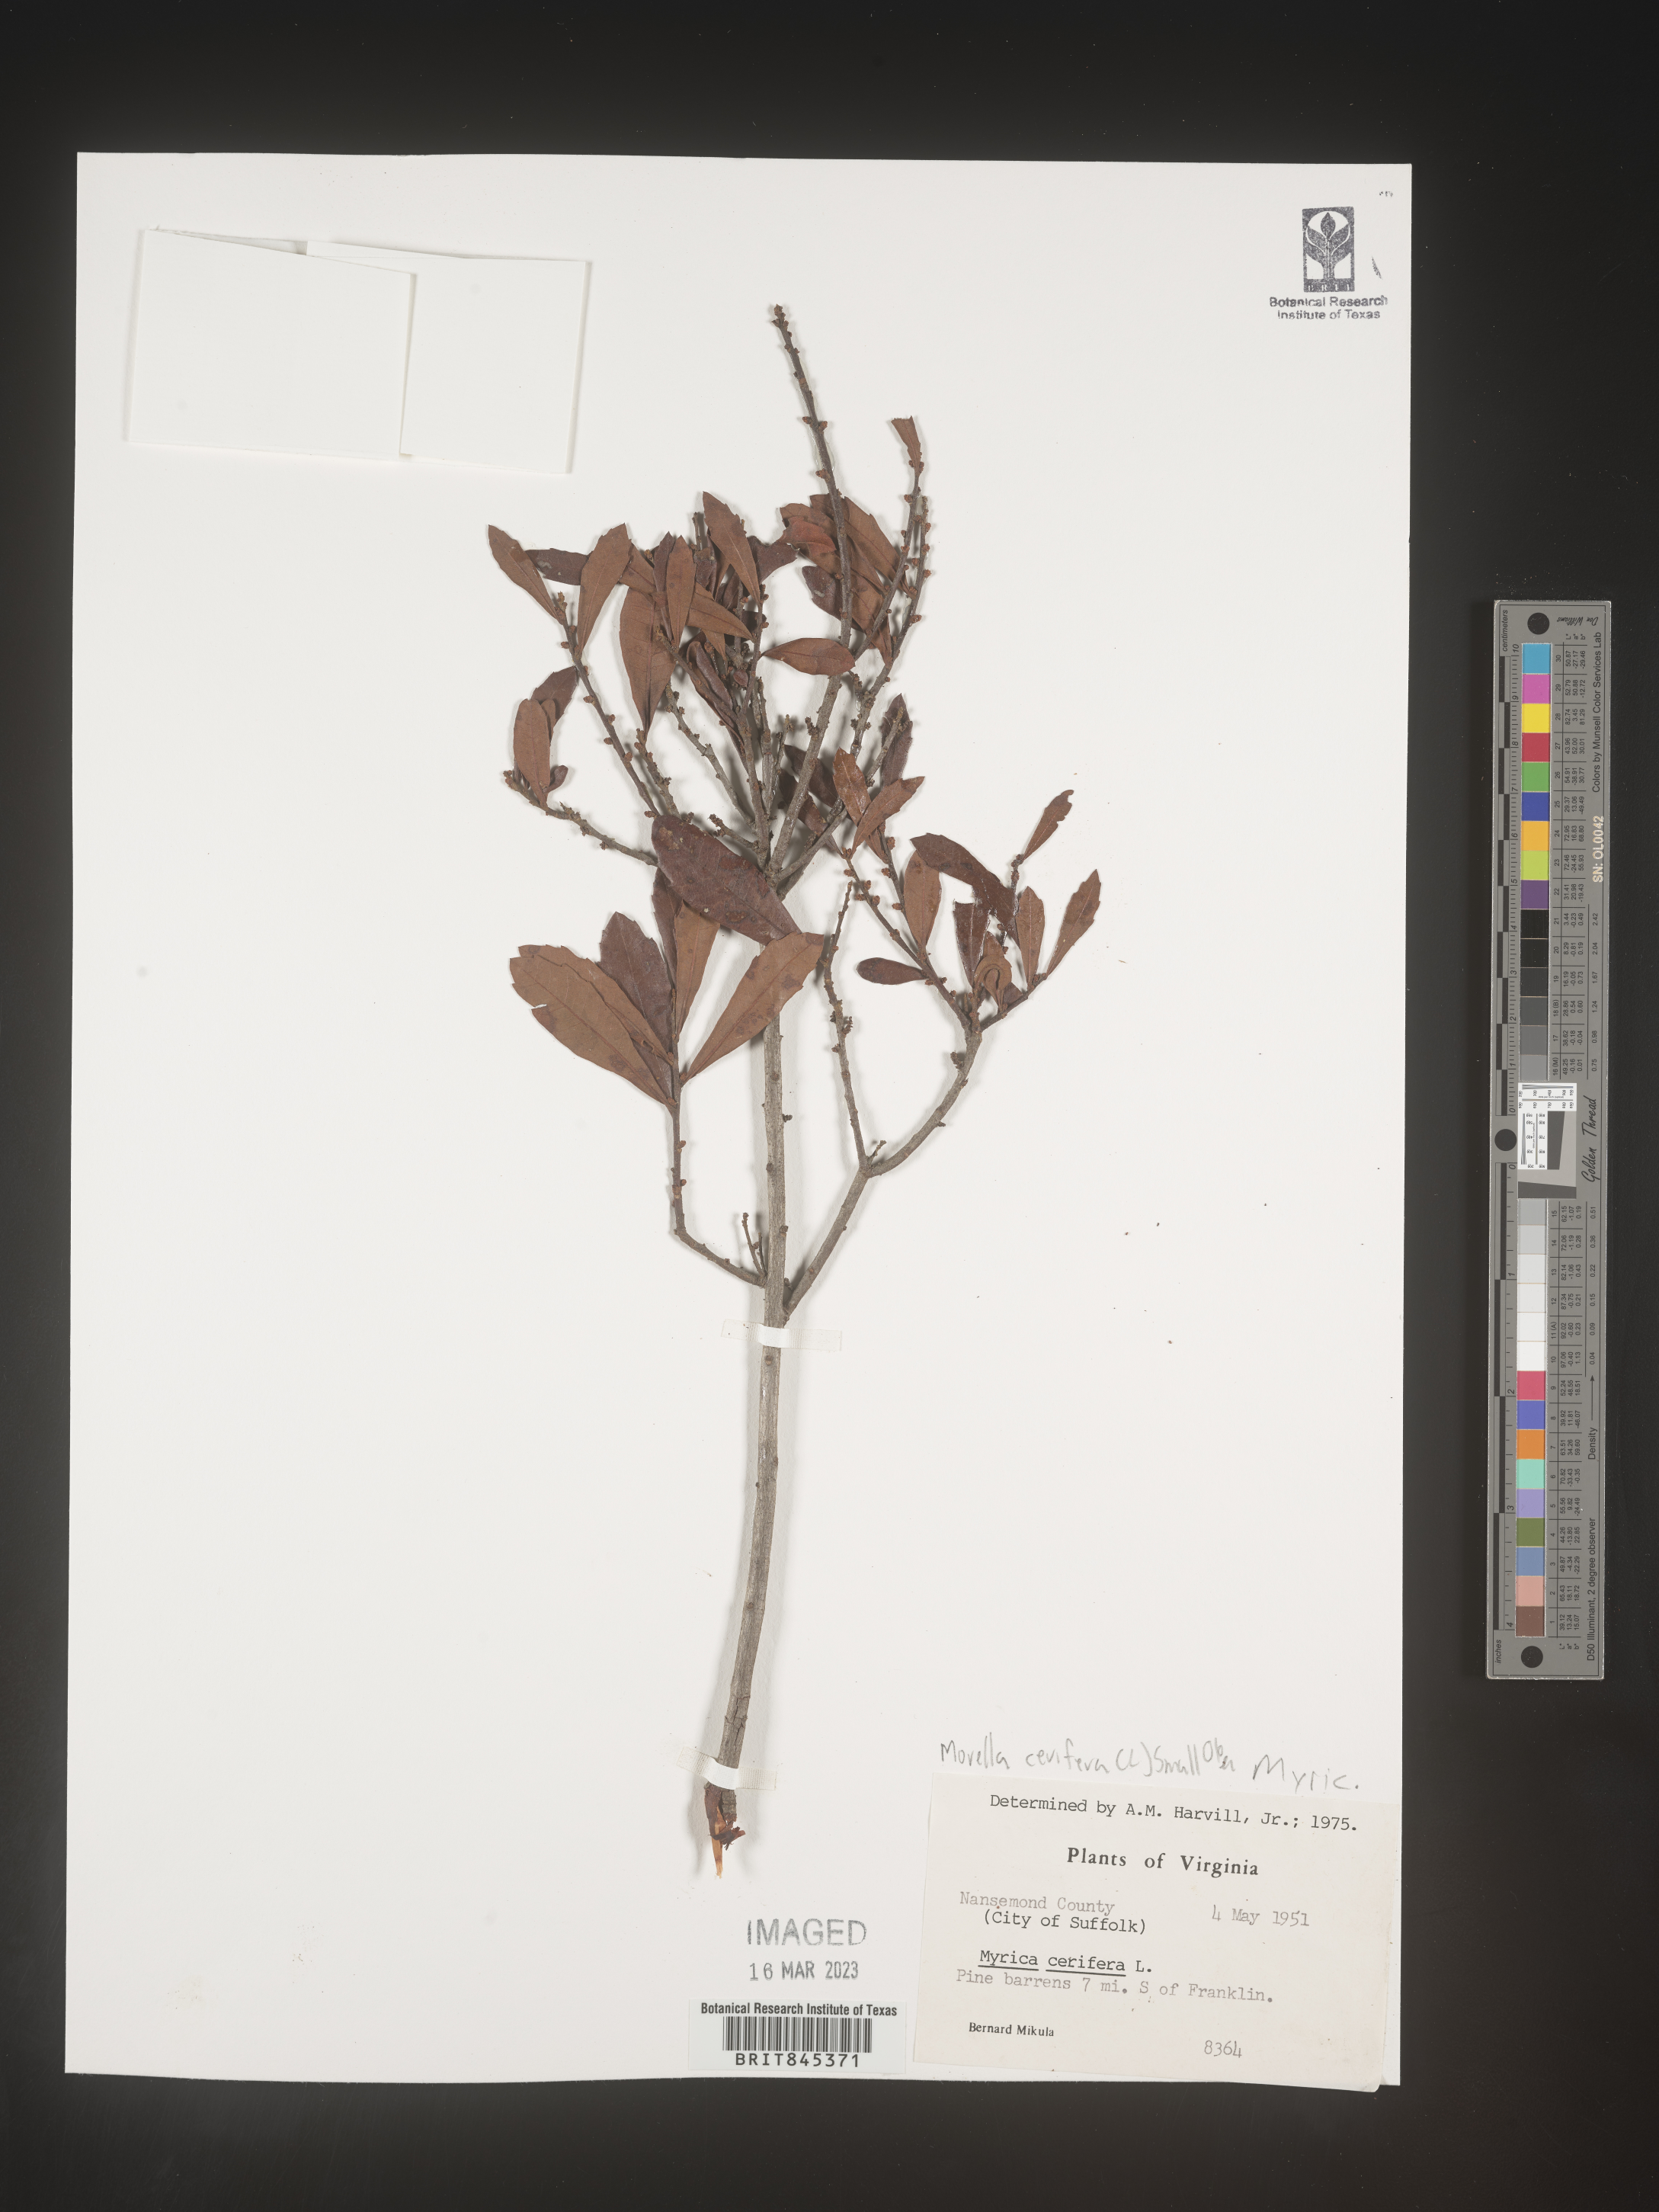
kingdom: Plantae
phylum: Tracheophyta
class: Magnoliopsida
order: Fagales
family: Myricaceae
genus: Morella
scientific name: Morella cerifera
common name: Wax myrtle
